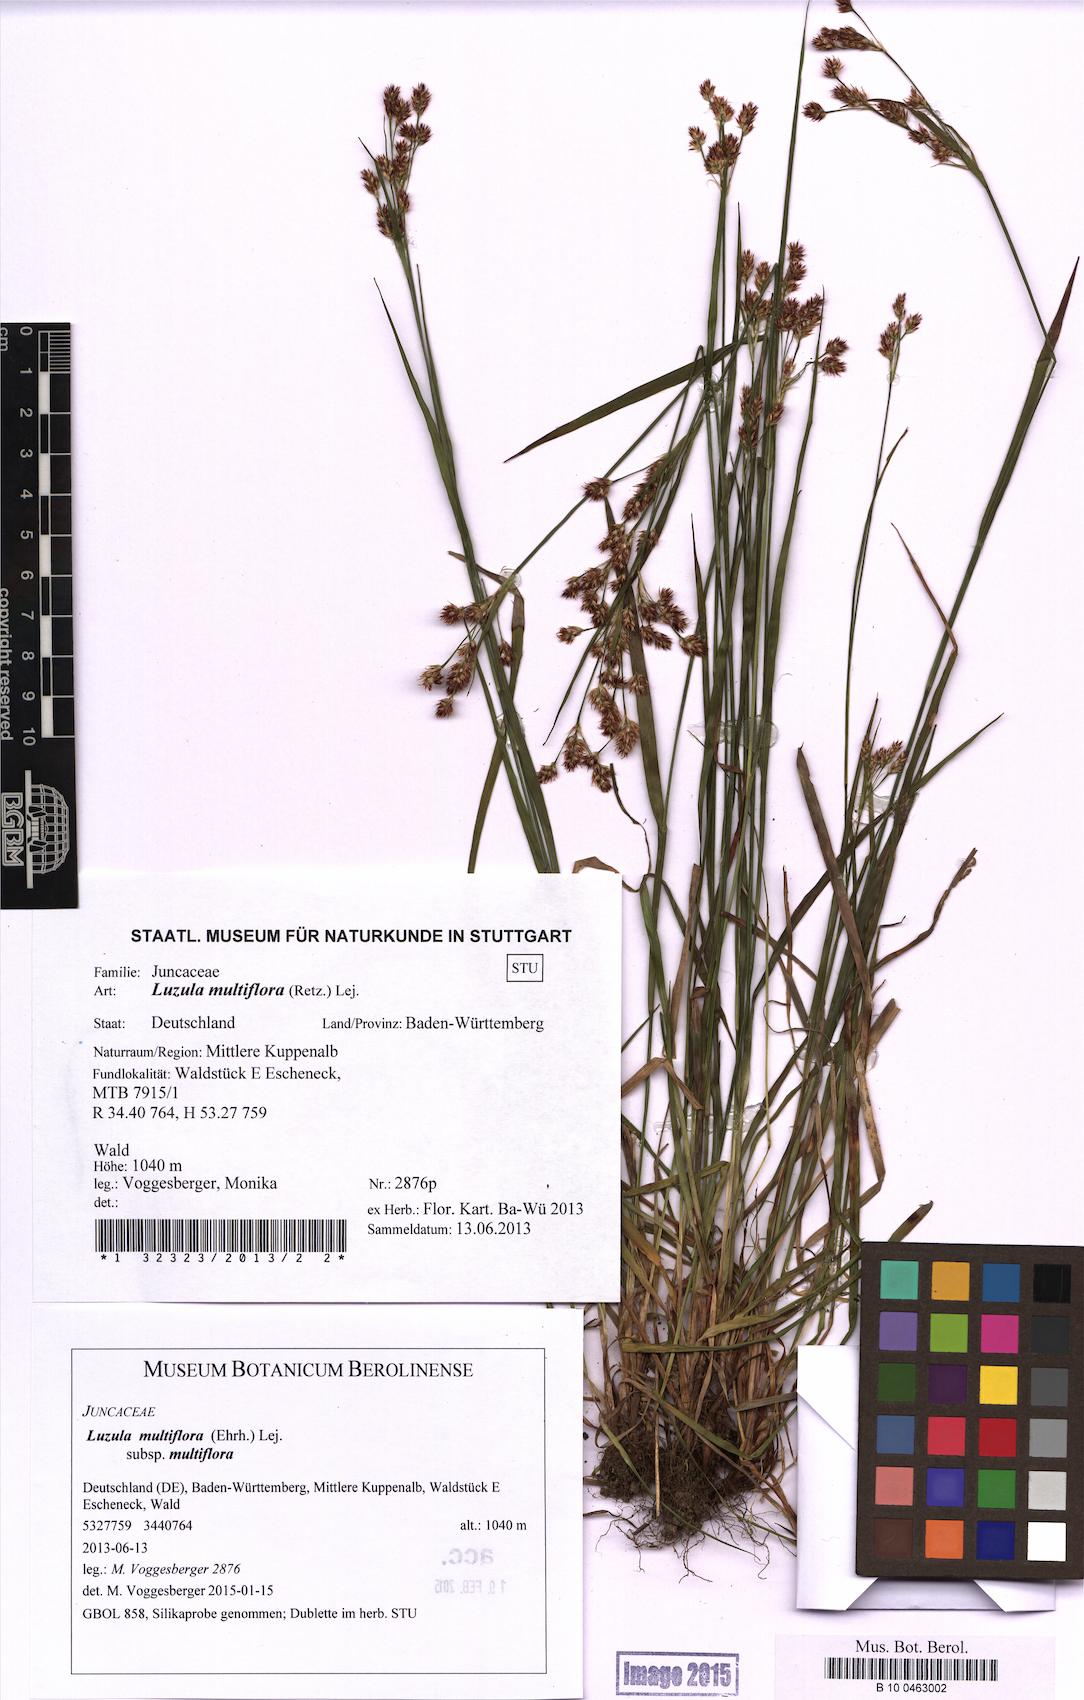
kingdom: Plantae
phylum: Tracheophyta
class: Liliopsida
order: Poales
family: Juncaceae
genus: Luzula
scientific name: Luzula multiflora
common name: Heath wood-rush
